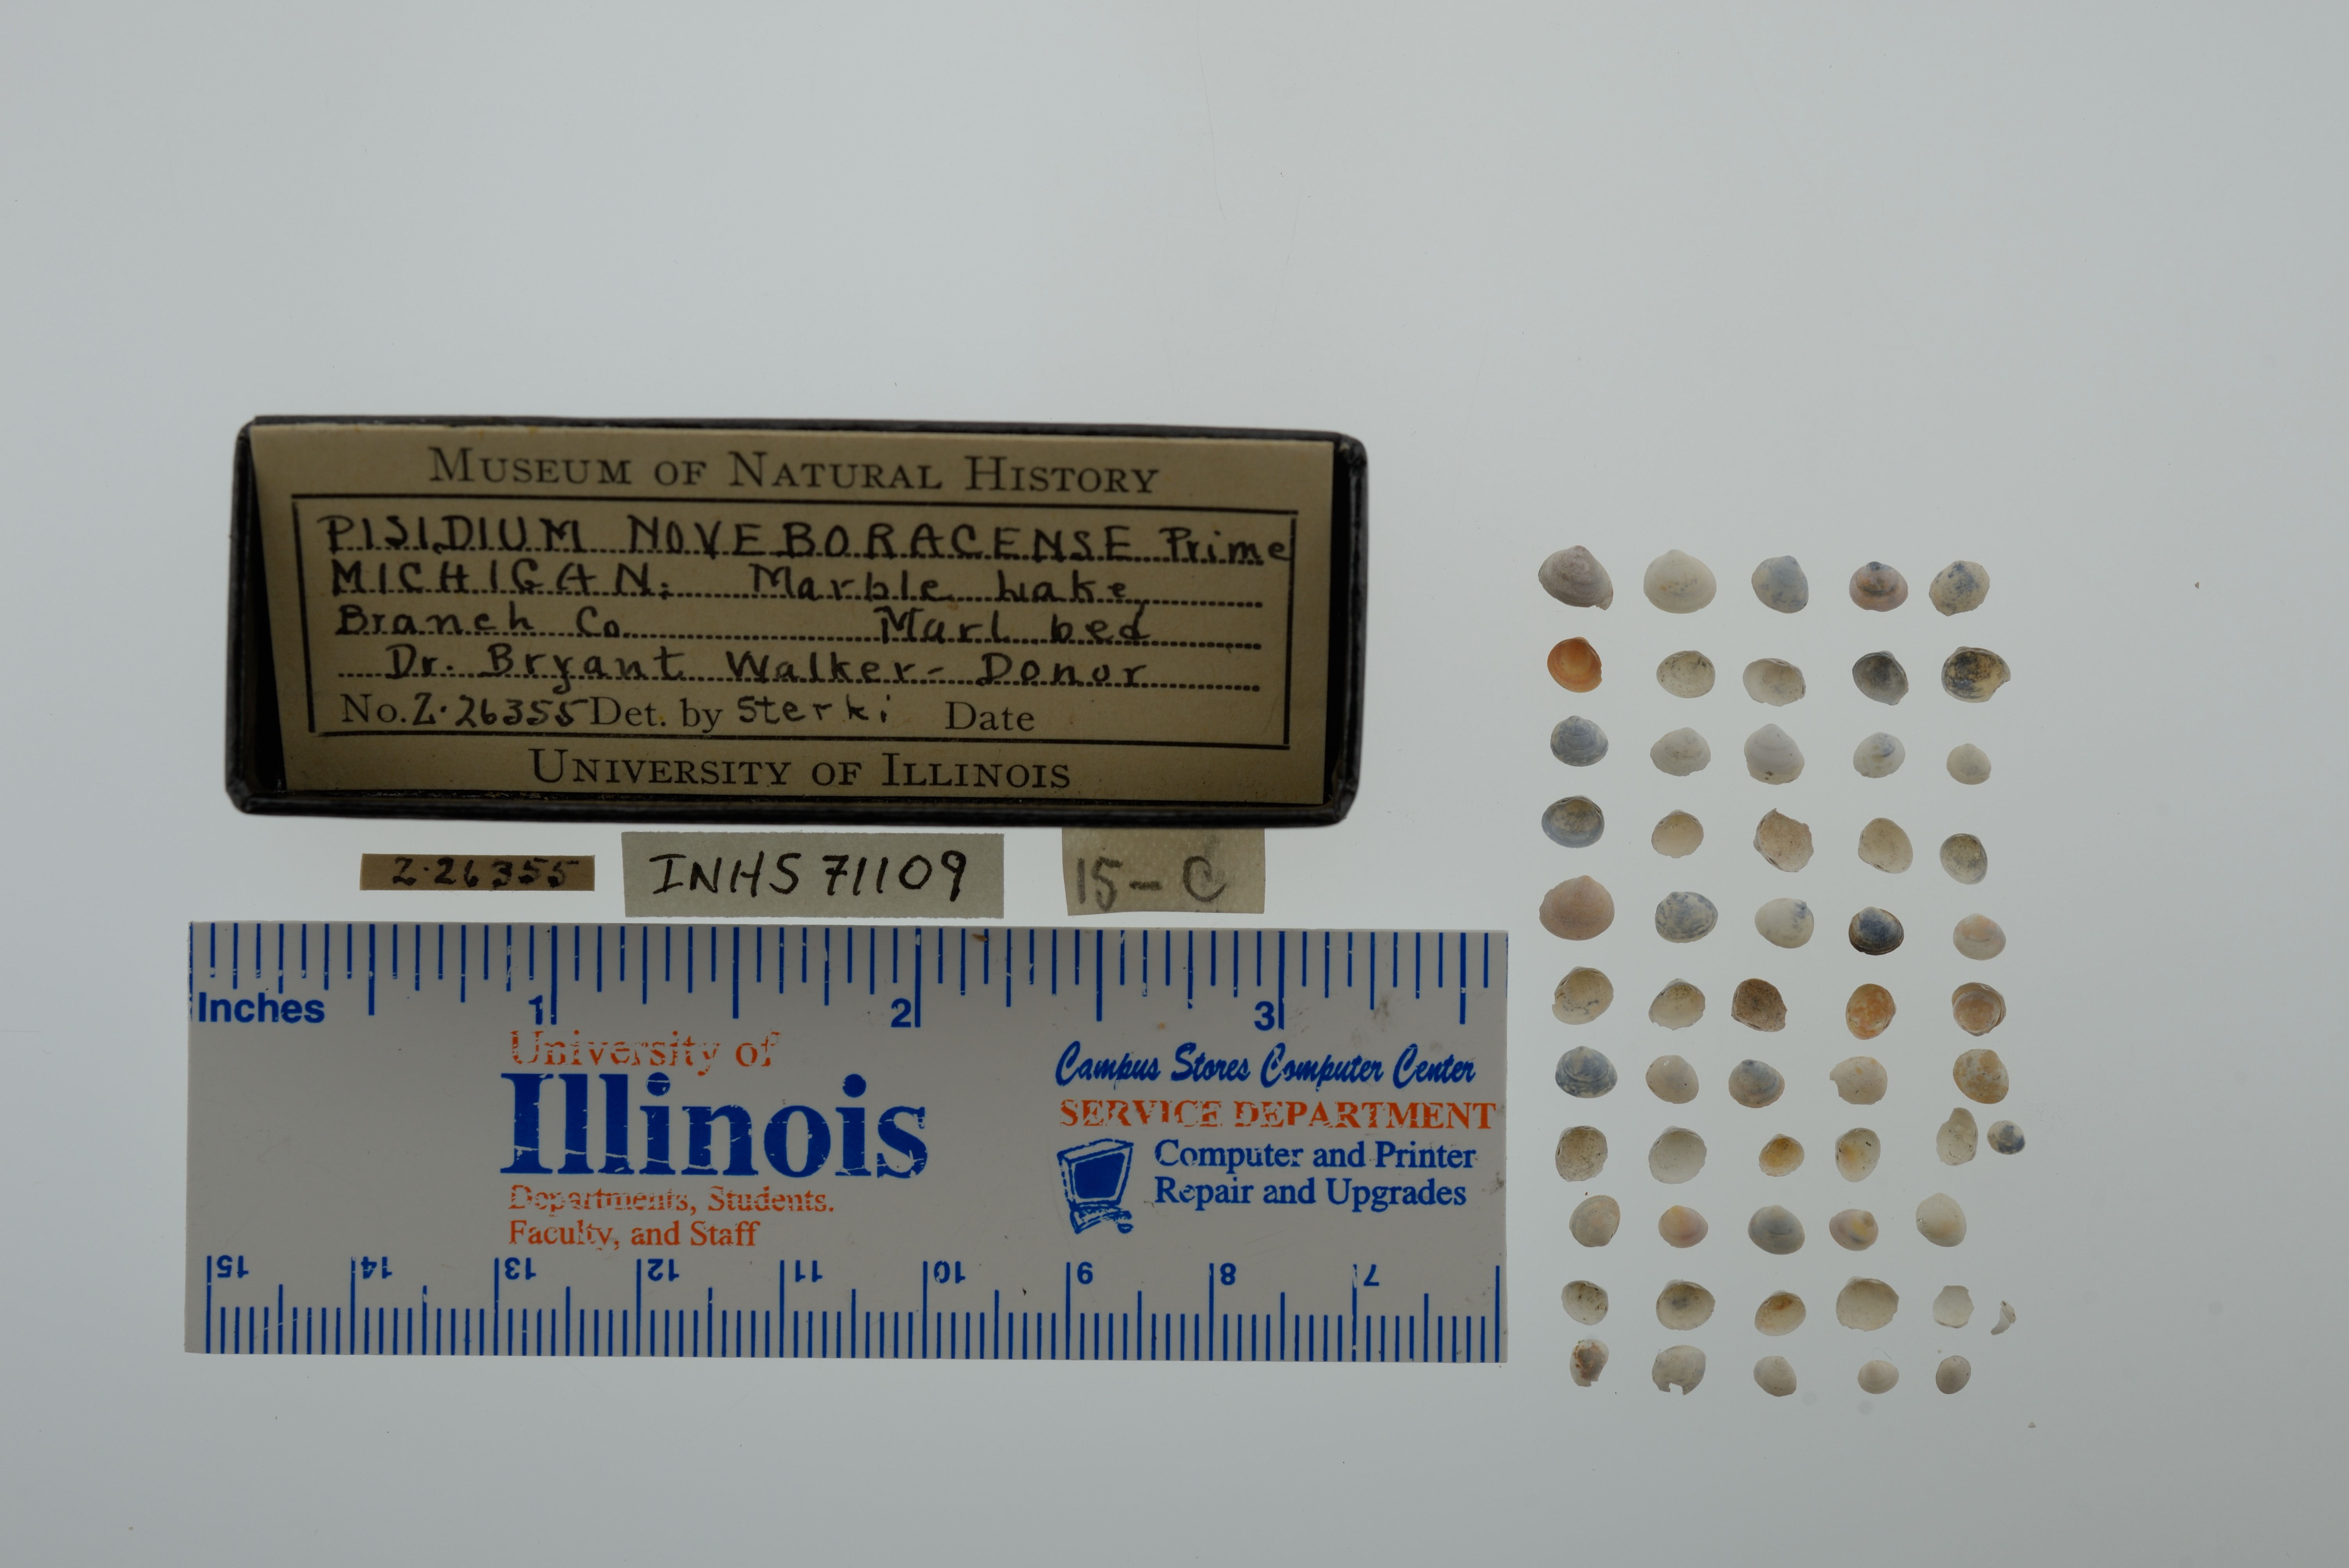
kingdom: Animalia
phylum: Mollusca
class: Bivalvia
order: Sphaeriida
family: Sphaeriidae
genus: Euglesa
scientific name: Euglesa casertana
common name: Caserta pea mussel
